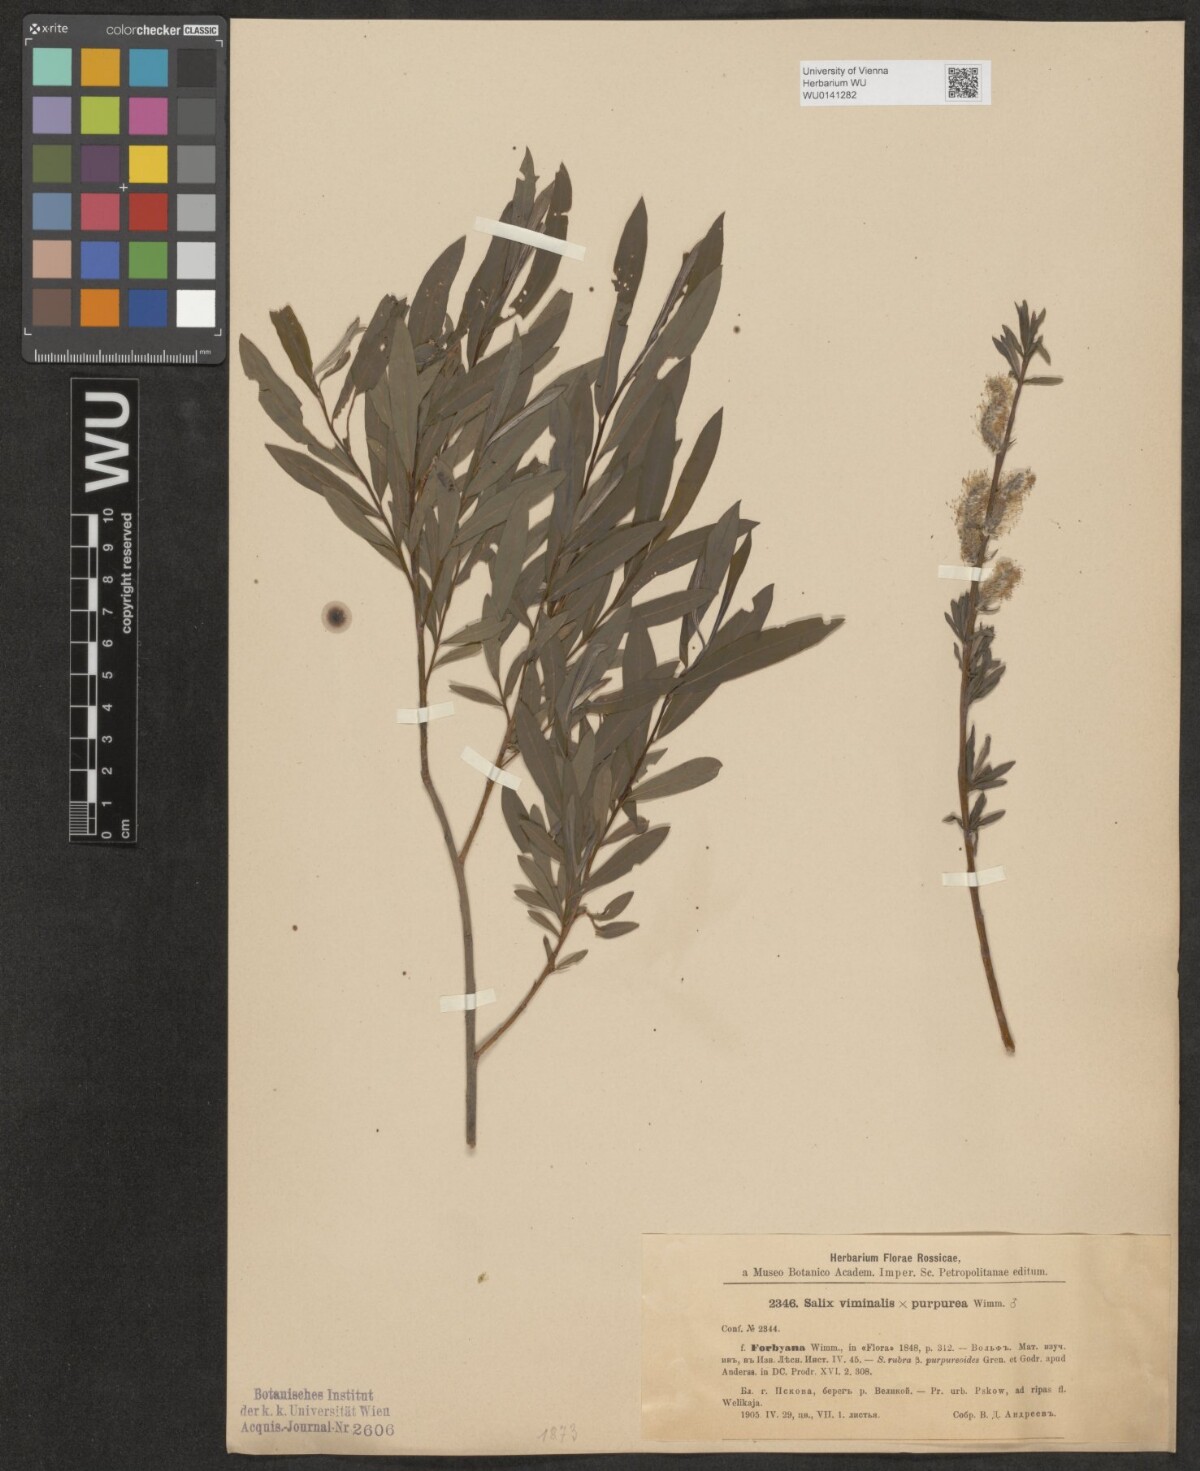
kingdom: Plantae
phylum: Tracheophyta
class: Magnoliopsida
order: Malpighiales
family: Salicaceae
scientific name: Salicaceae
